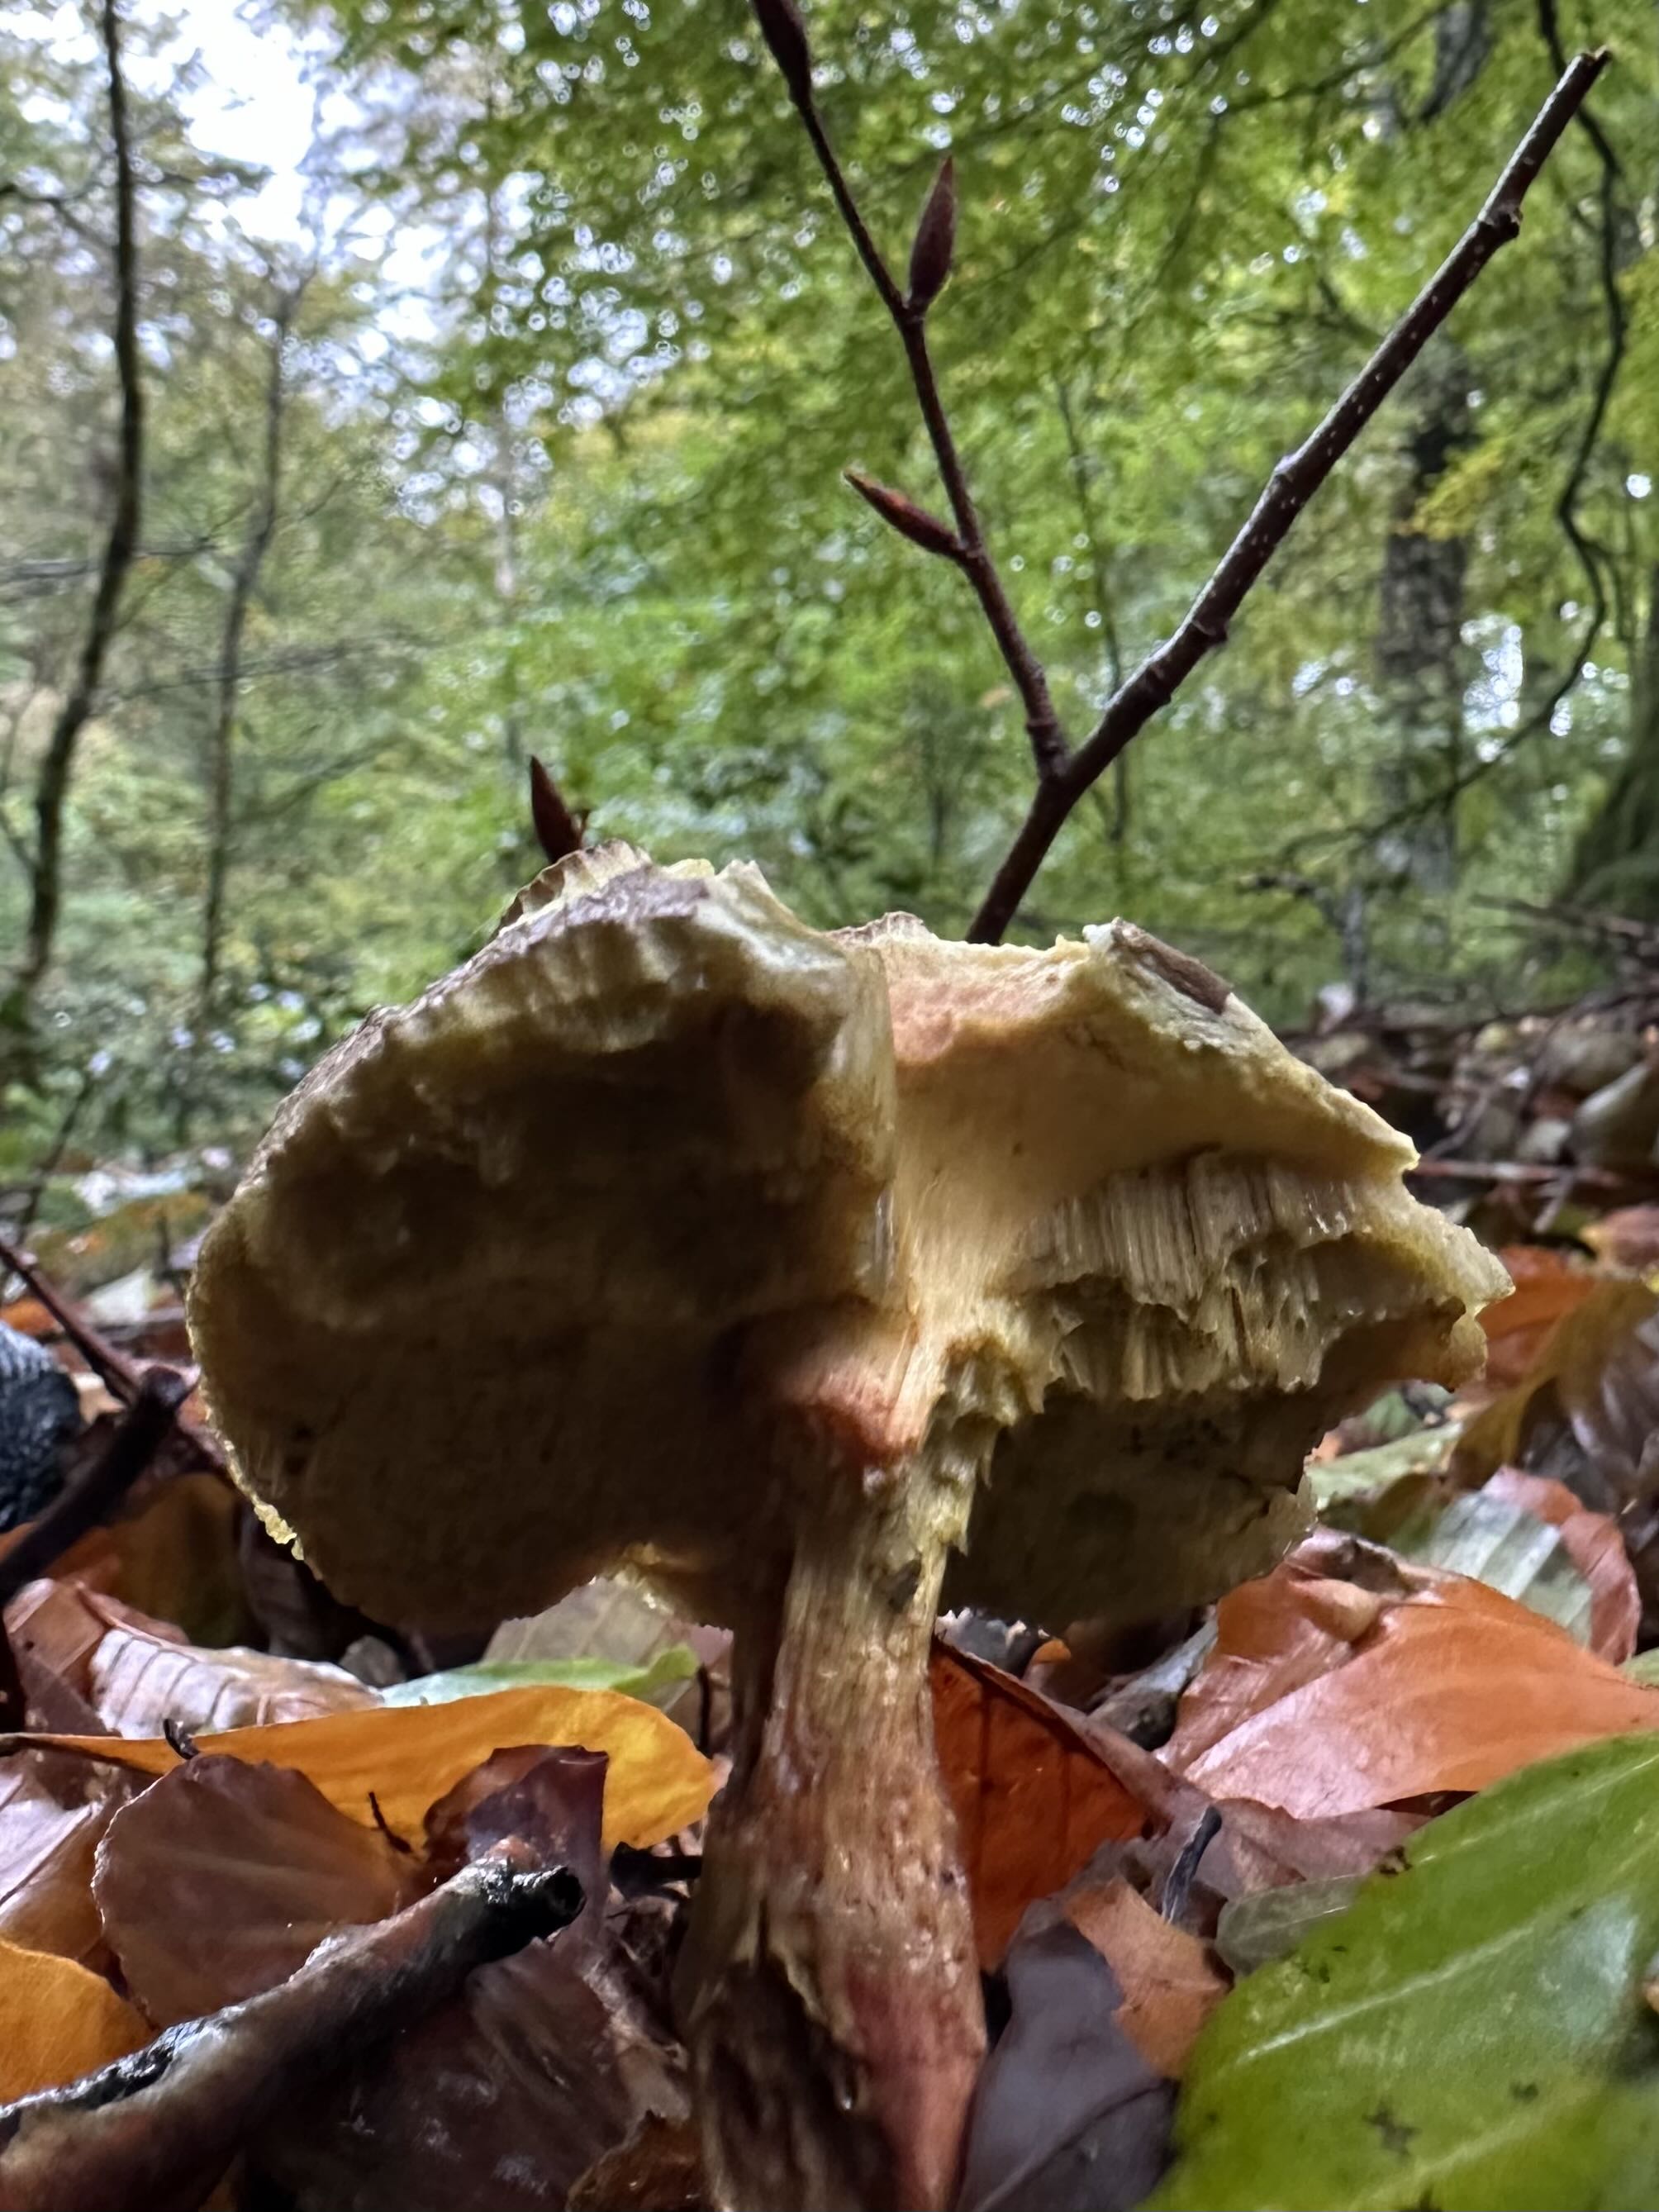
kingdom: Fungi
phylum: Basidiomycota
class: Agaricomycetes
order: Boletales
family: Boletaceae
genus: Xerocomellus
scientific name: Xerocomellus
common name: dværgrørhat
